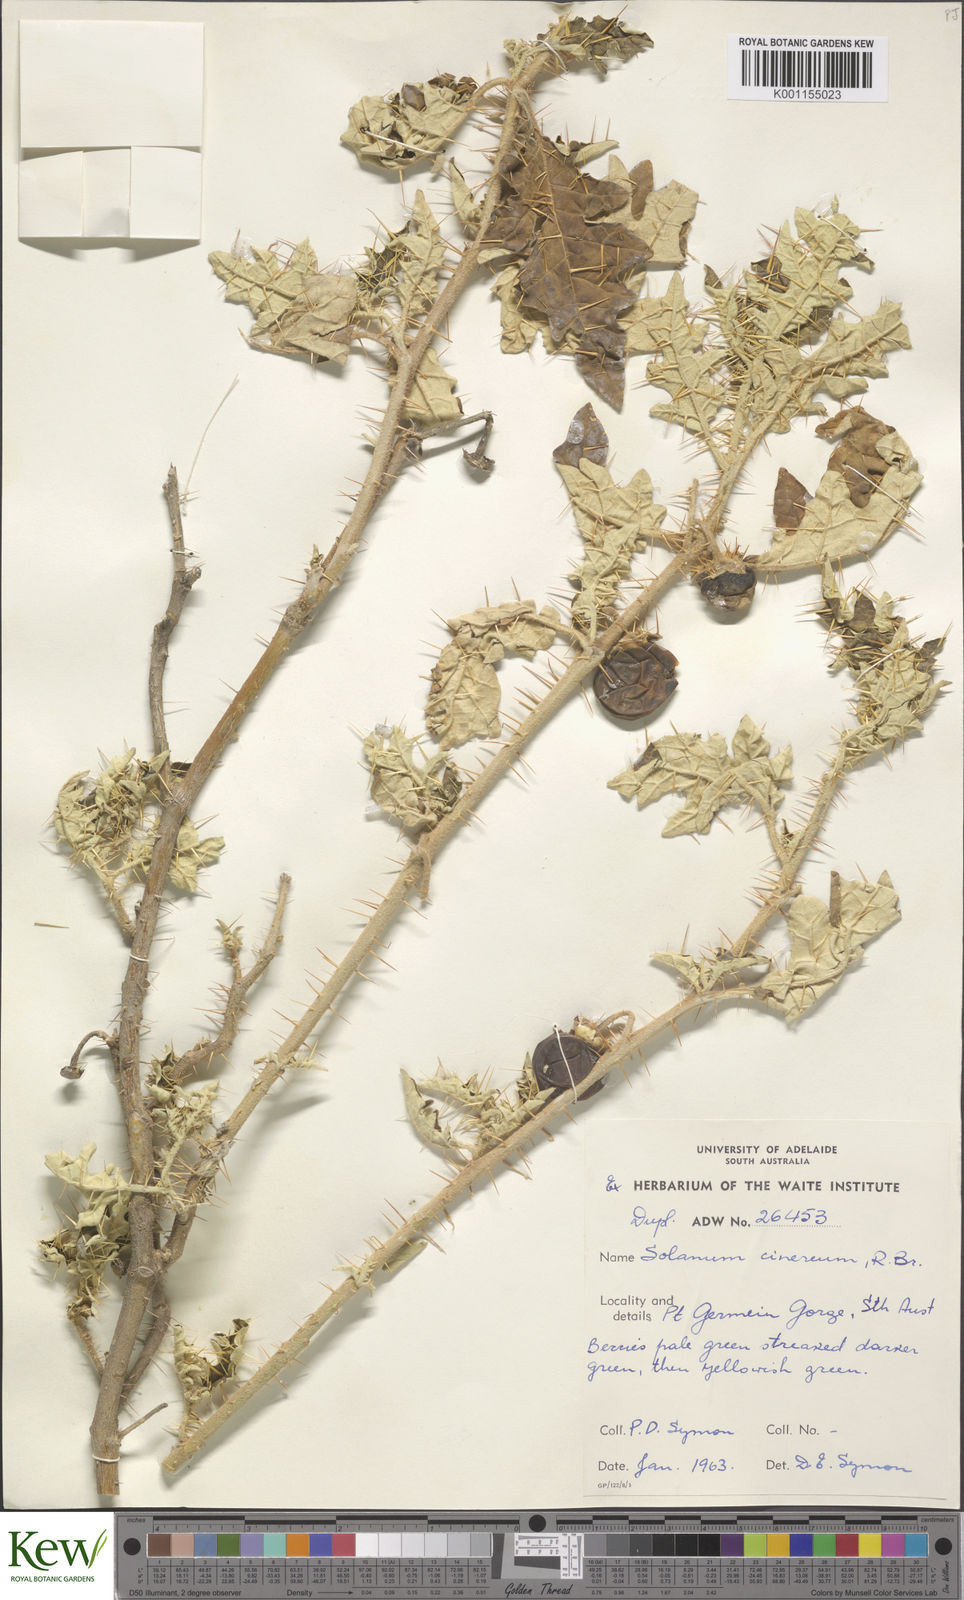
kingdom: Plantae
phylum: Tracheophyta
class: Magnoliopsida
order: Solanales
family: Solanaceae
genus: Solanum
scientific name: Solanum cinereum
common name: Narrawa-bur
